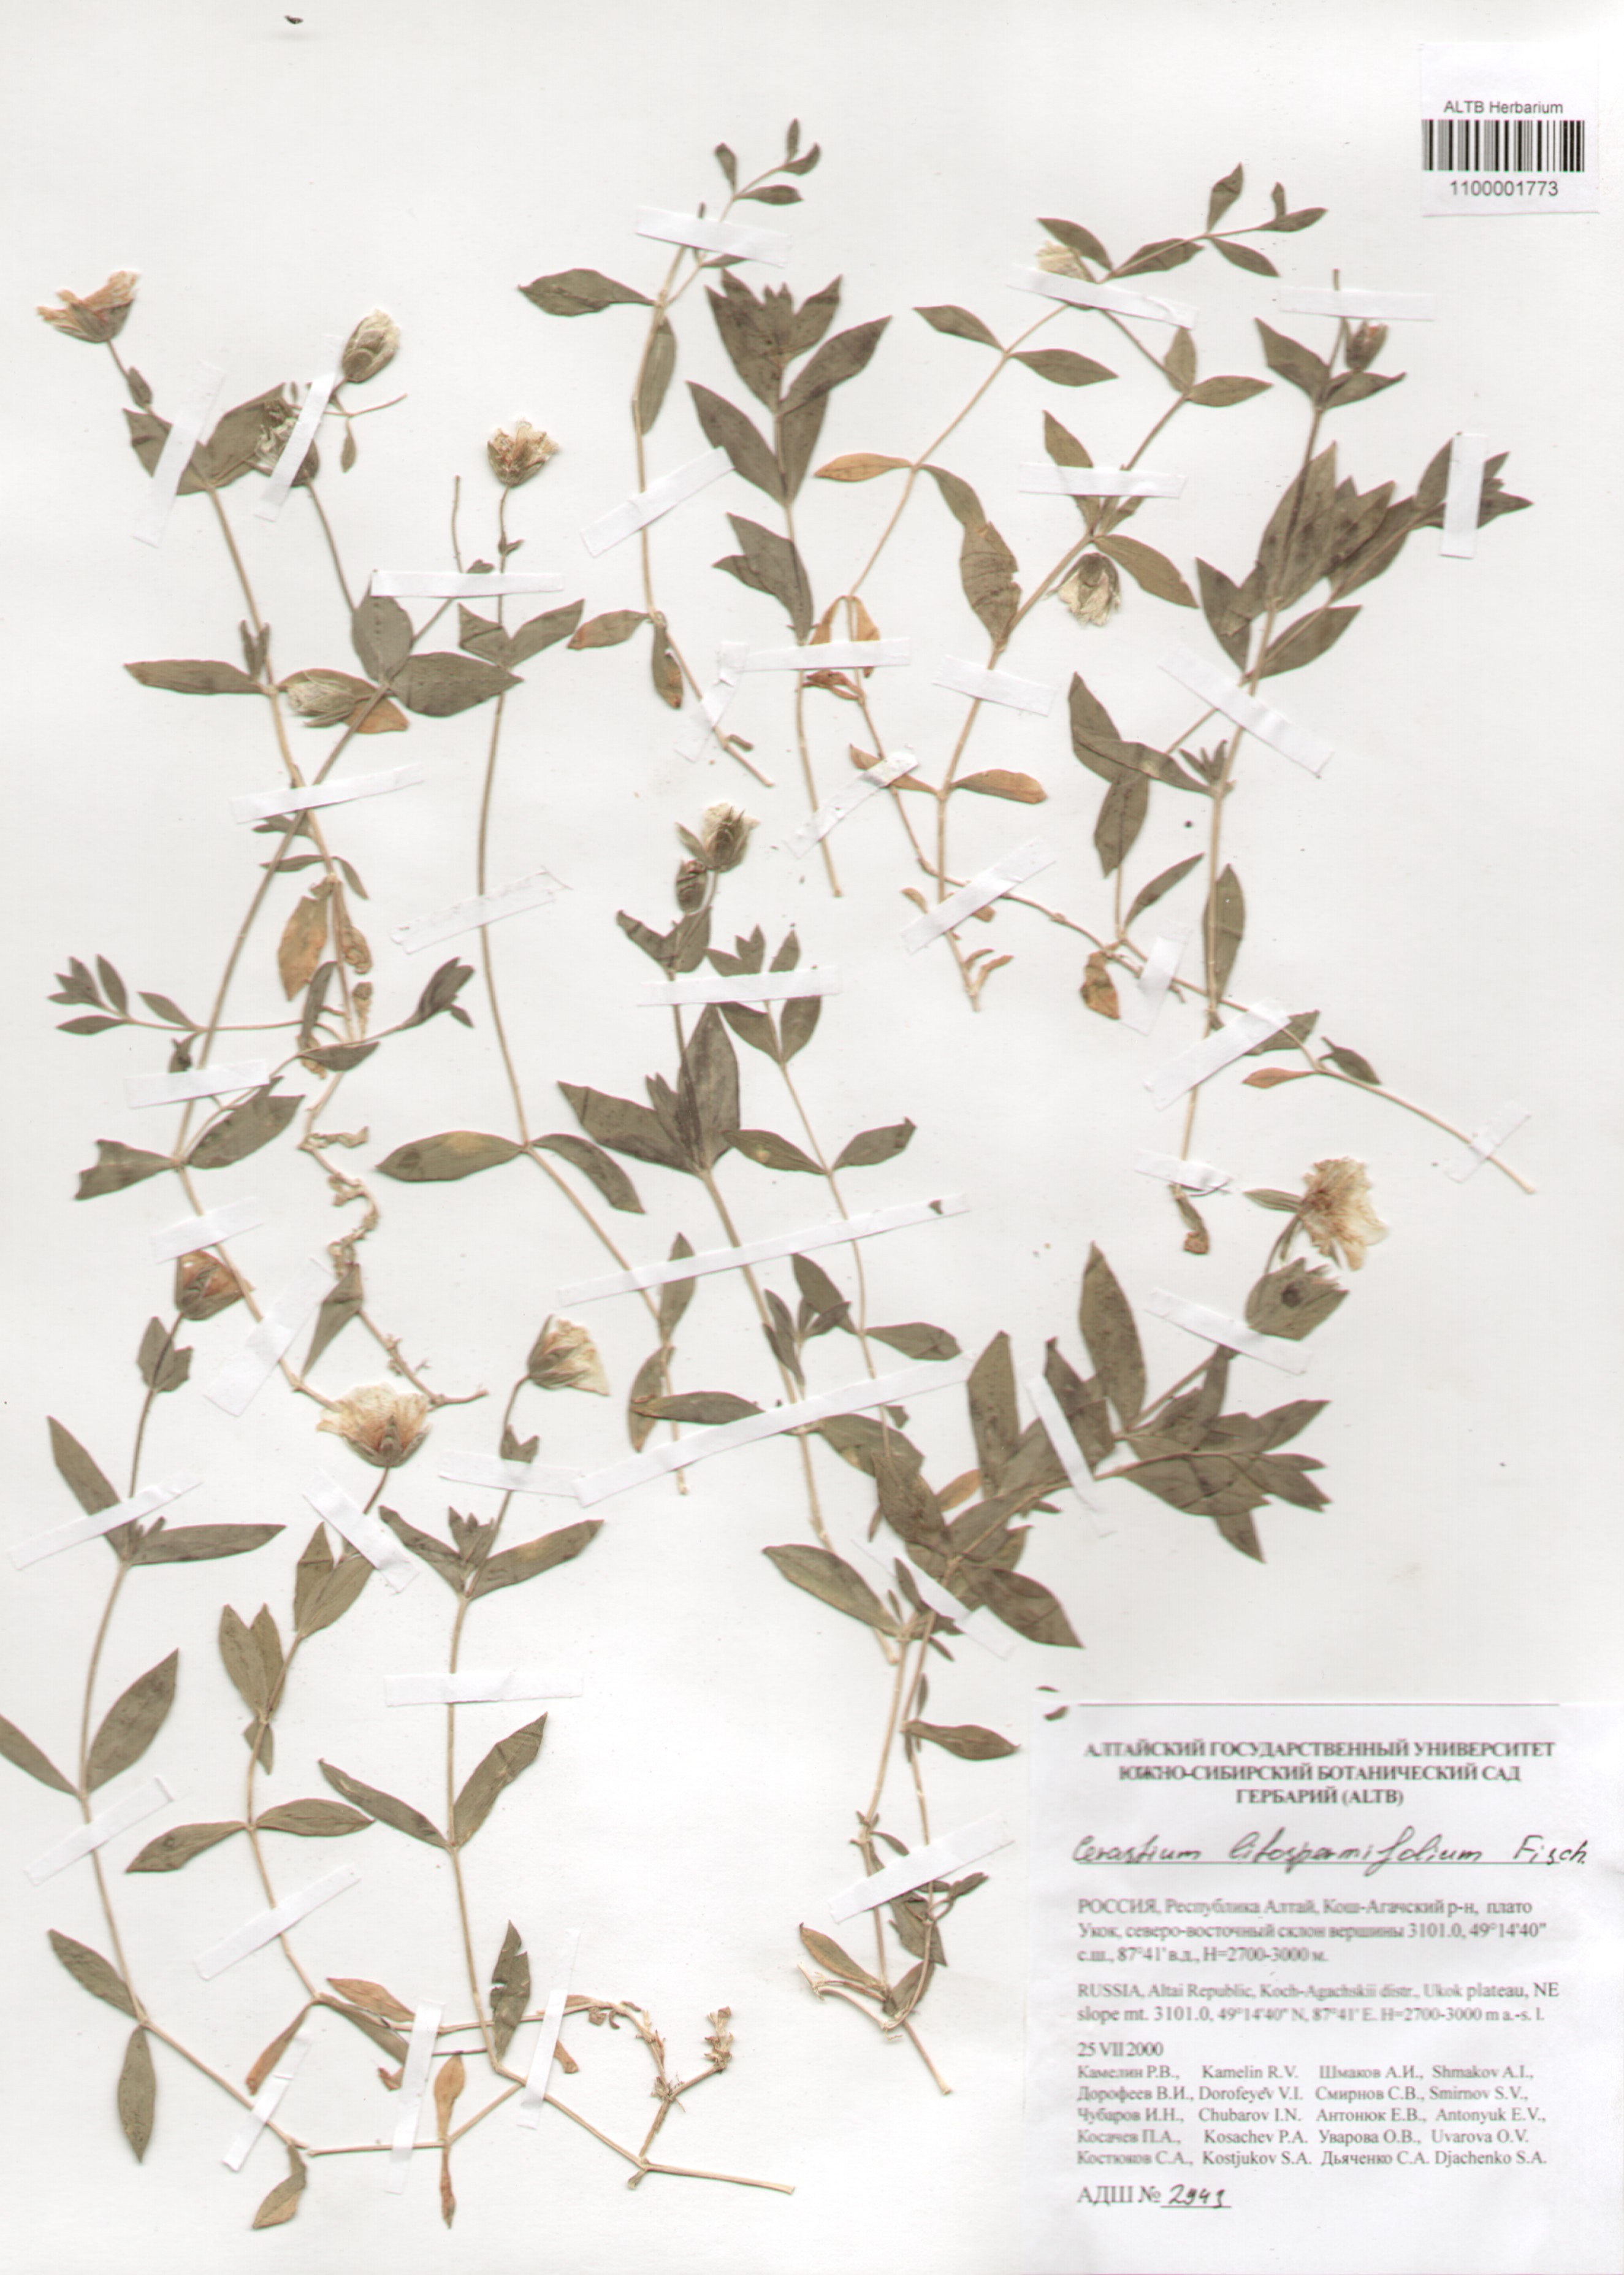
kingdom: Plantae
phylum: Tracheophyta
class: Magnoliopsida
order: Caryophyllales
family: Caryophyllaceae
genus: Cerastium
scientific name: Cerastium lithospermifolium
